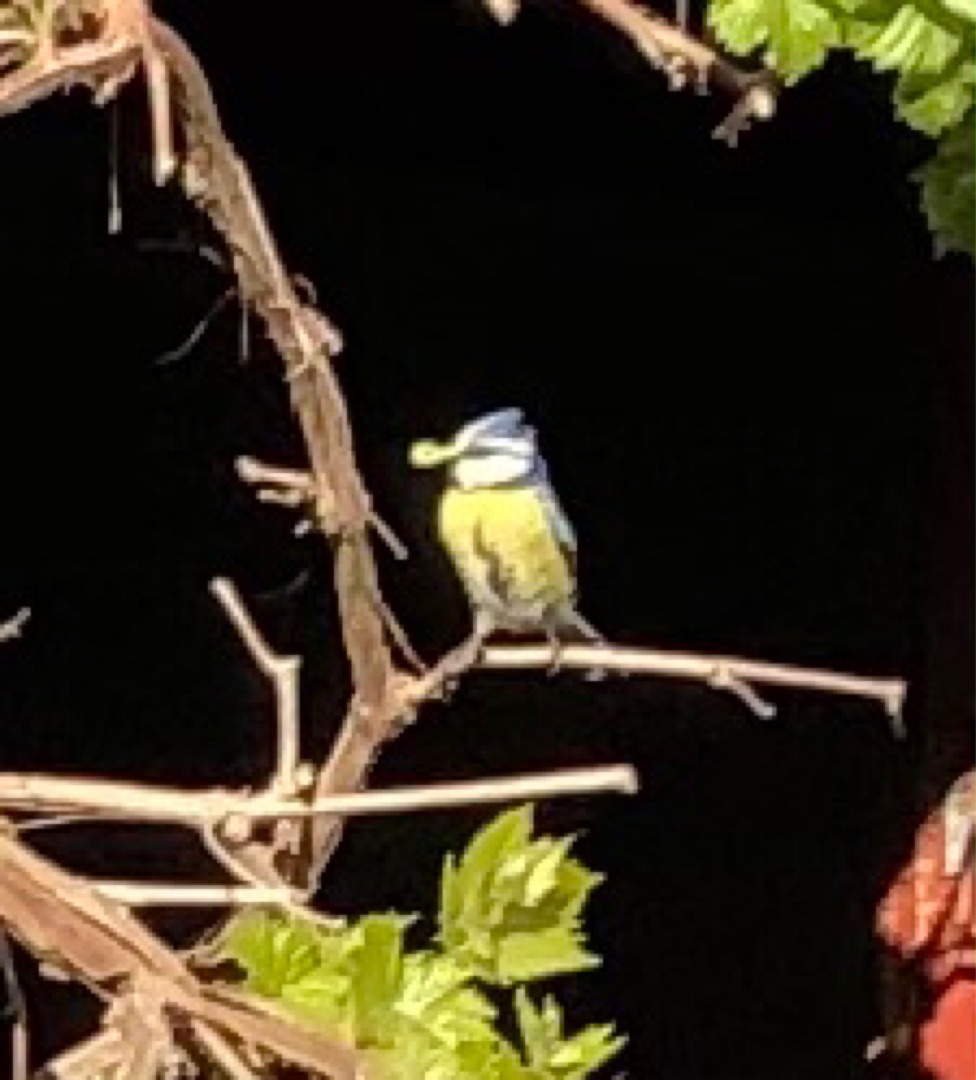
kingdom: Animalia
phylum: Chordata
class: Aves
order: Passeriformes
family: Paridae
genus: Cyanistes
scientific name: Cyanistes caeruleus
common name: Blåmejse
